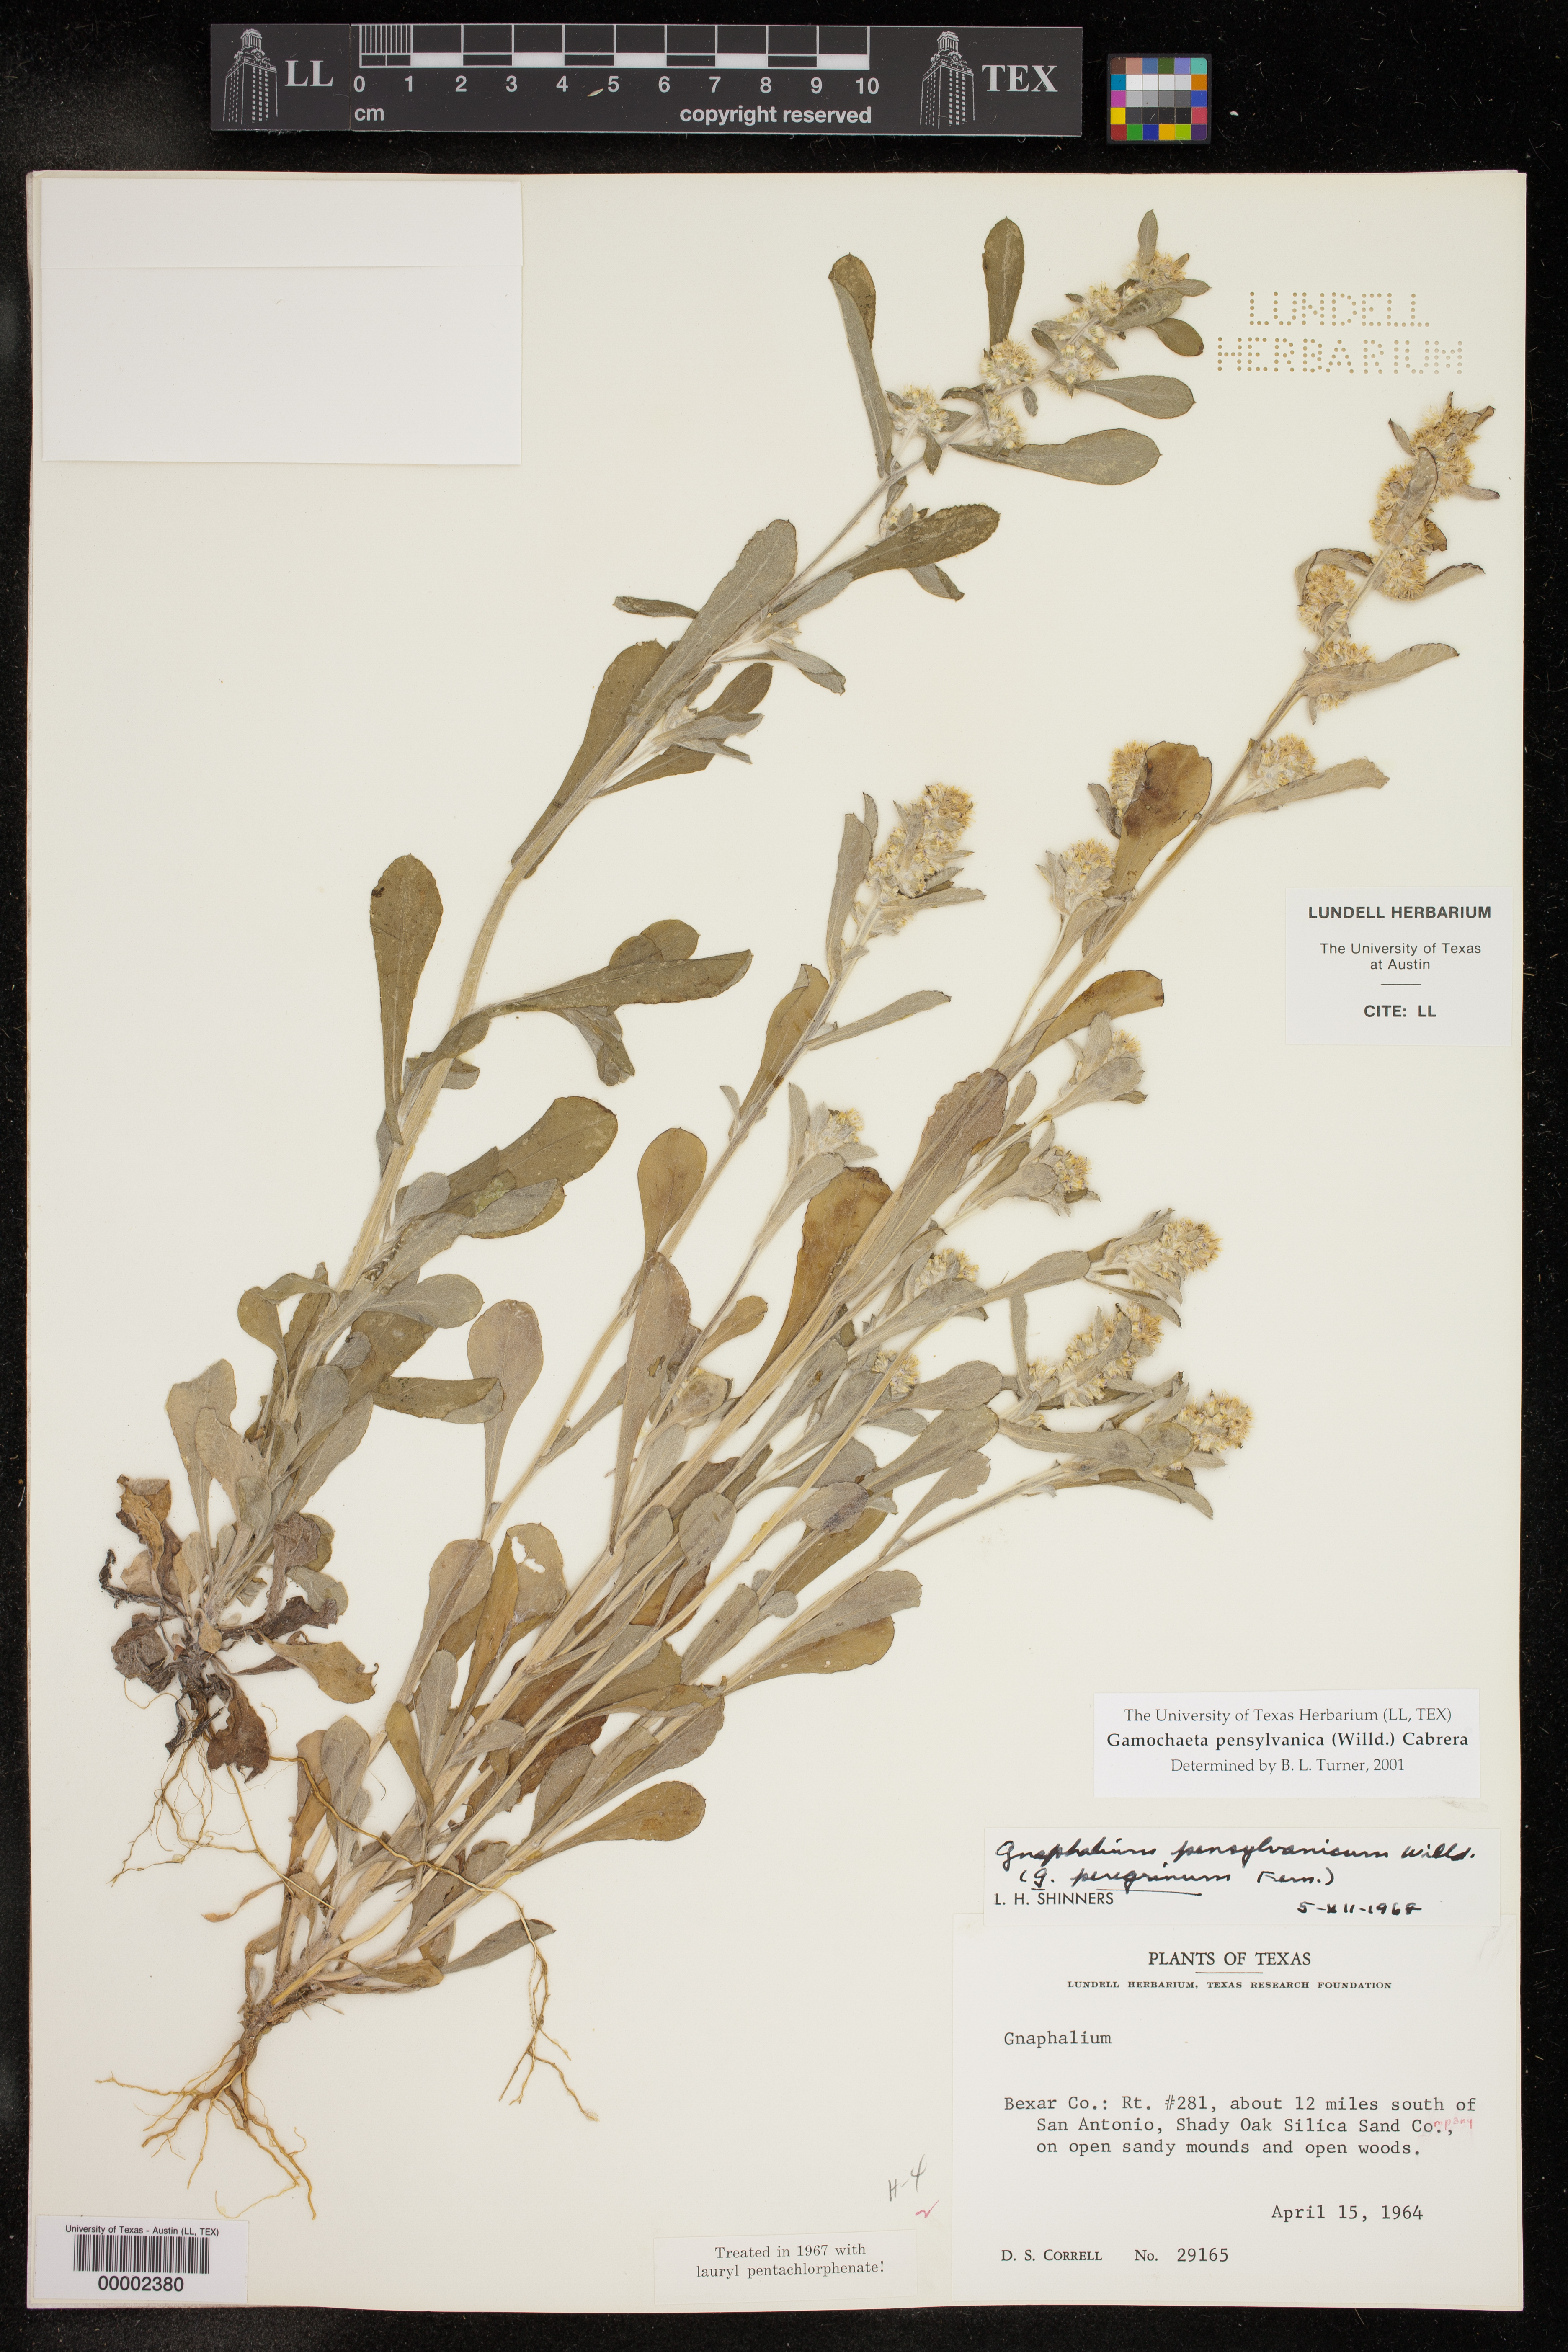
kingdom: Plantae
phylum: Tracheophyta
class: Magnoliopsida
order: Asterales
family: Asteraceae
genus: Gamochaeta
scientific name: Gamochaeta pensylvanica
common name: Pennsylvania everlasting
